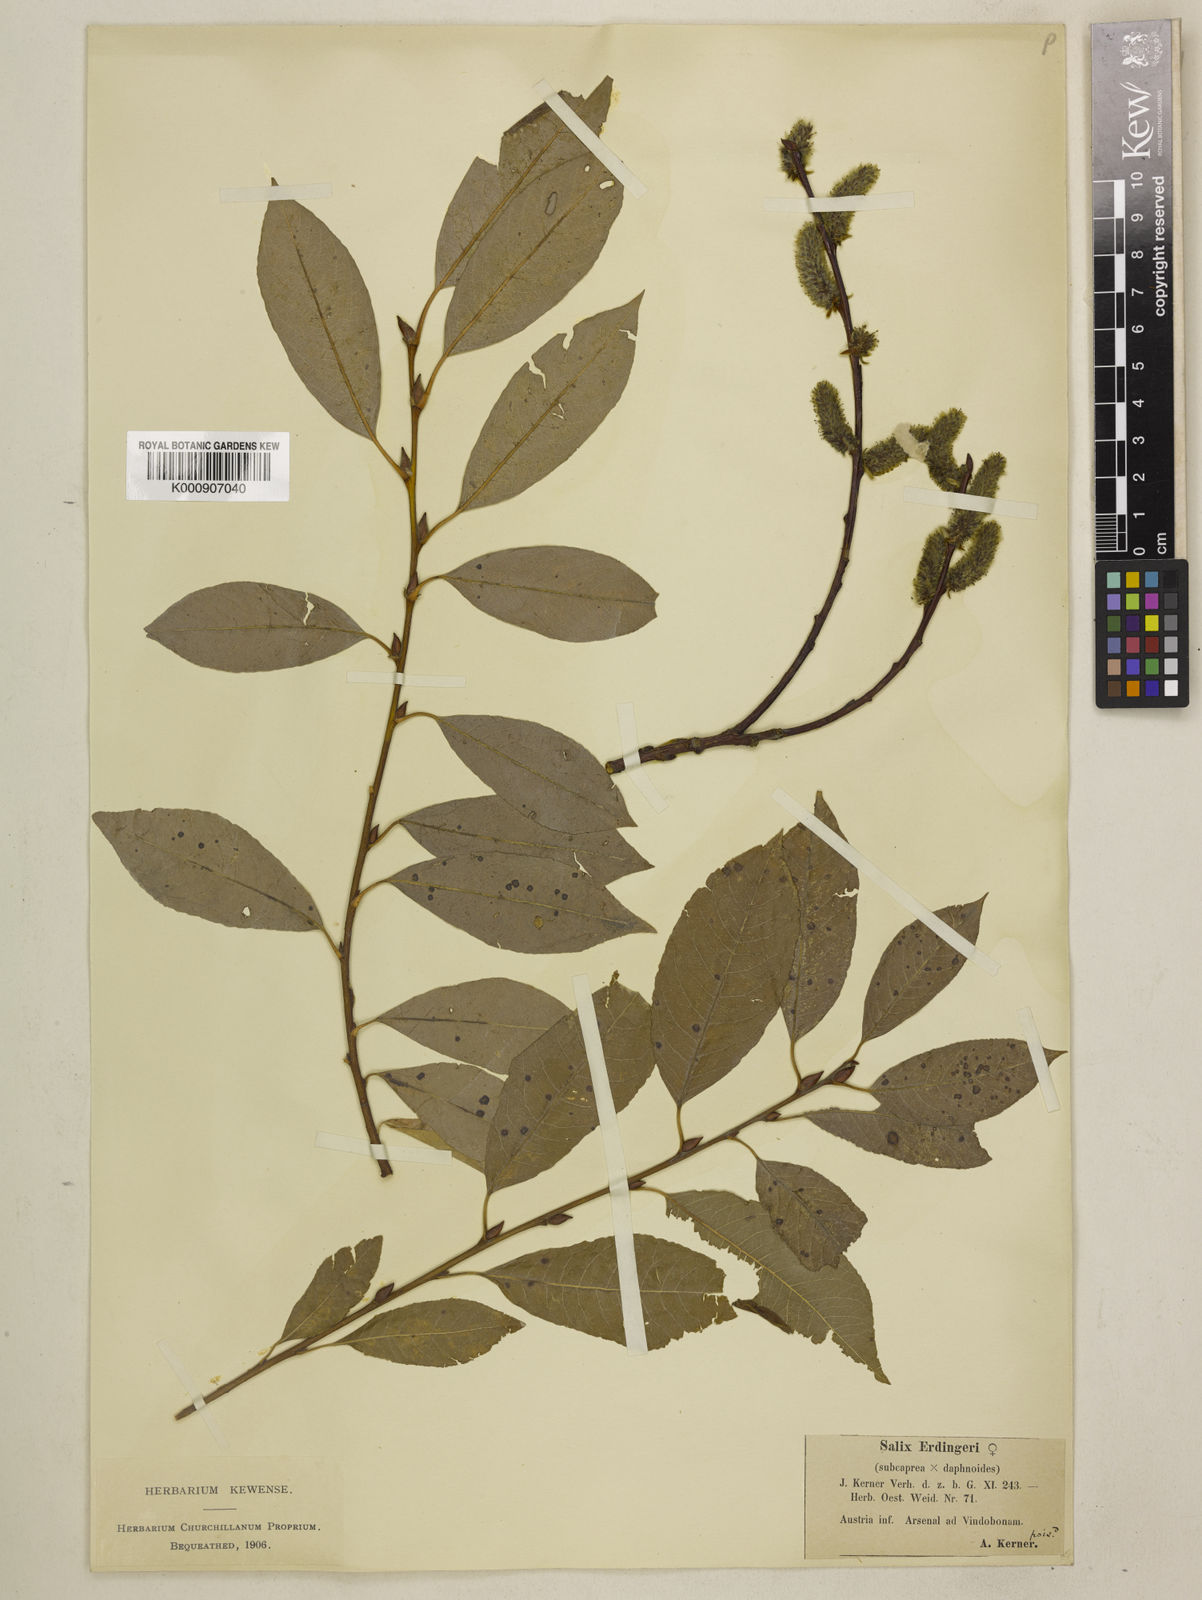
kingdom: Plantae
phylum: Tracheophyta
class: Magnoliopsida
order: Malpighiales
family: Salicaceae
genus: Salix
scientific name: Salix caprea
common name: Goat willow
